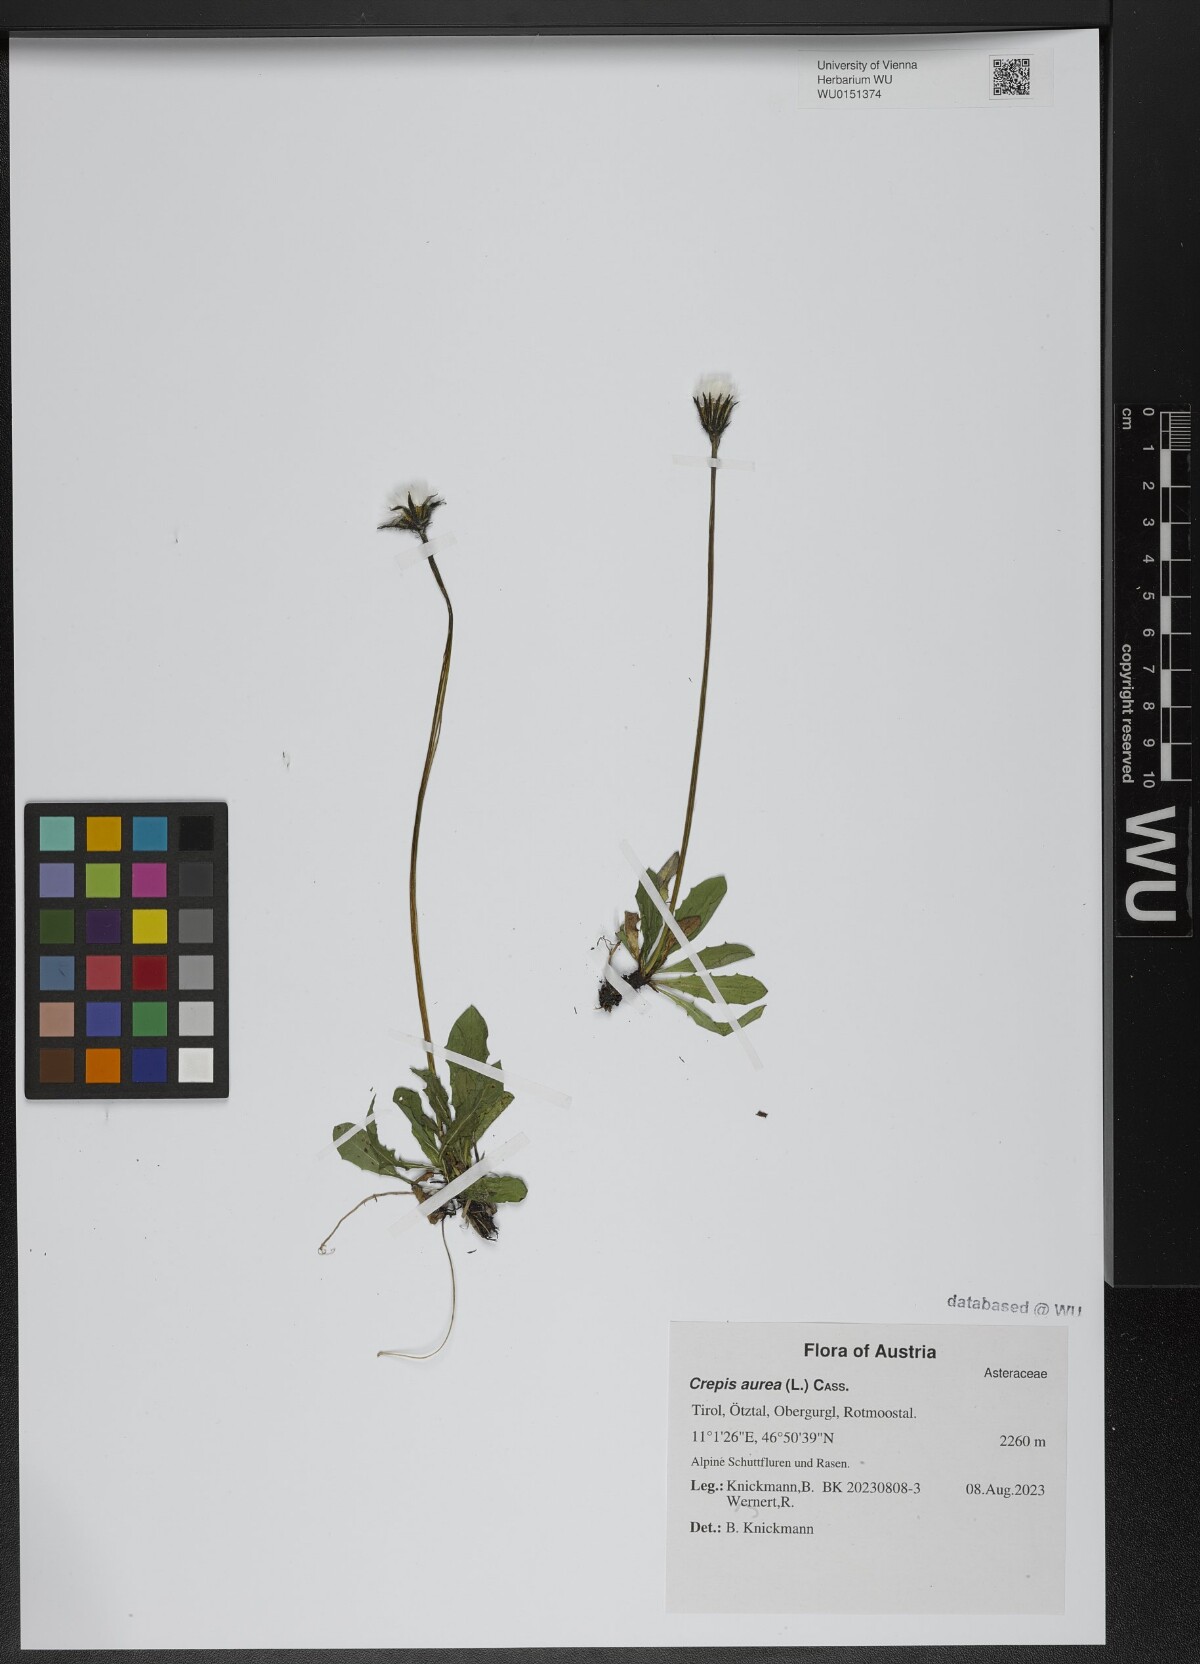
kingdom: Plantae
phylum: Tracheophyta
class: Magnoliopsida
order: Asterales
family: Asteraceae
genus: Crepis
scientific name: Crepis aurea
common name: Golden hawk's-beard
